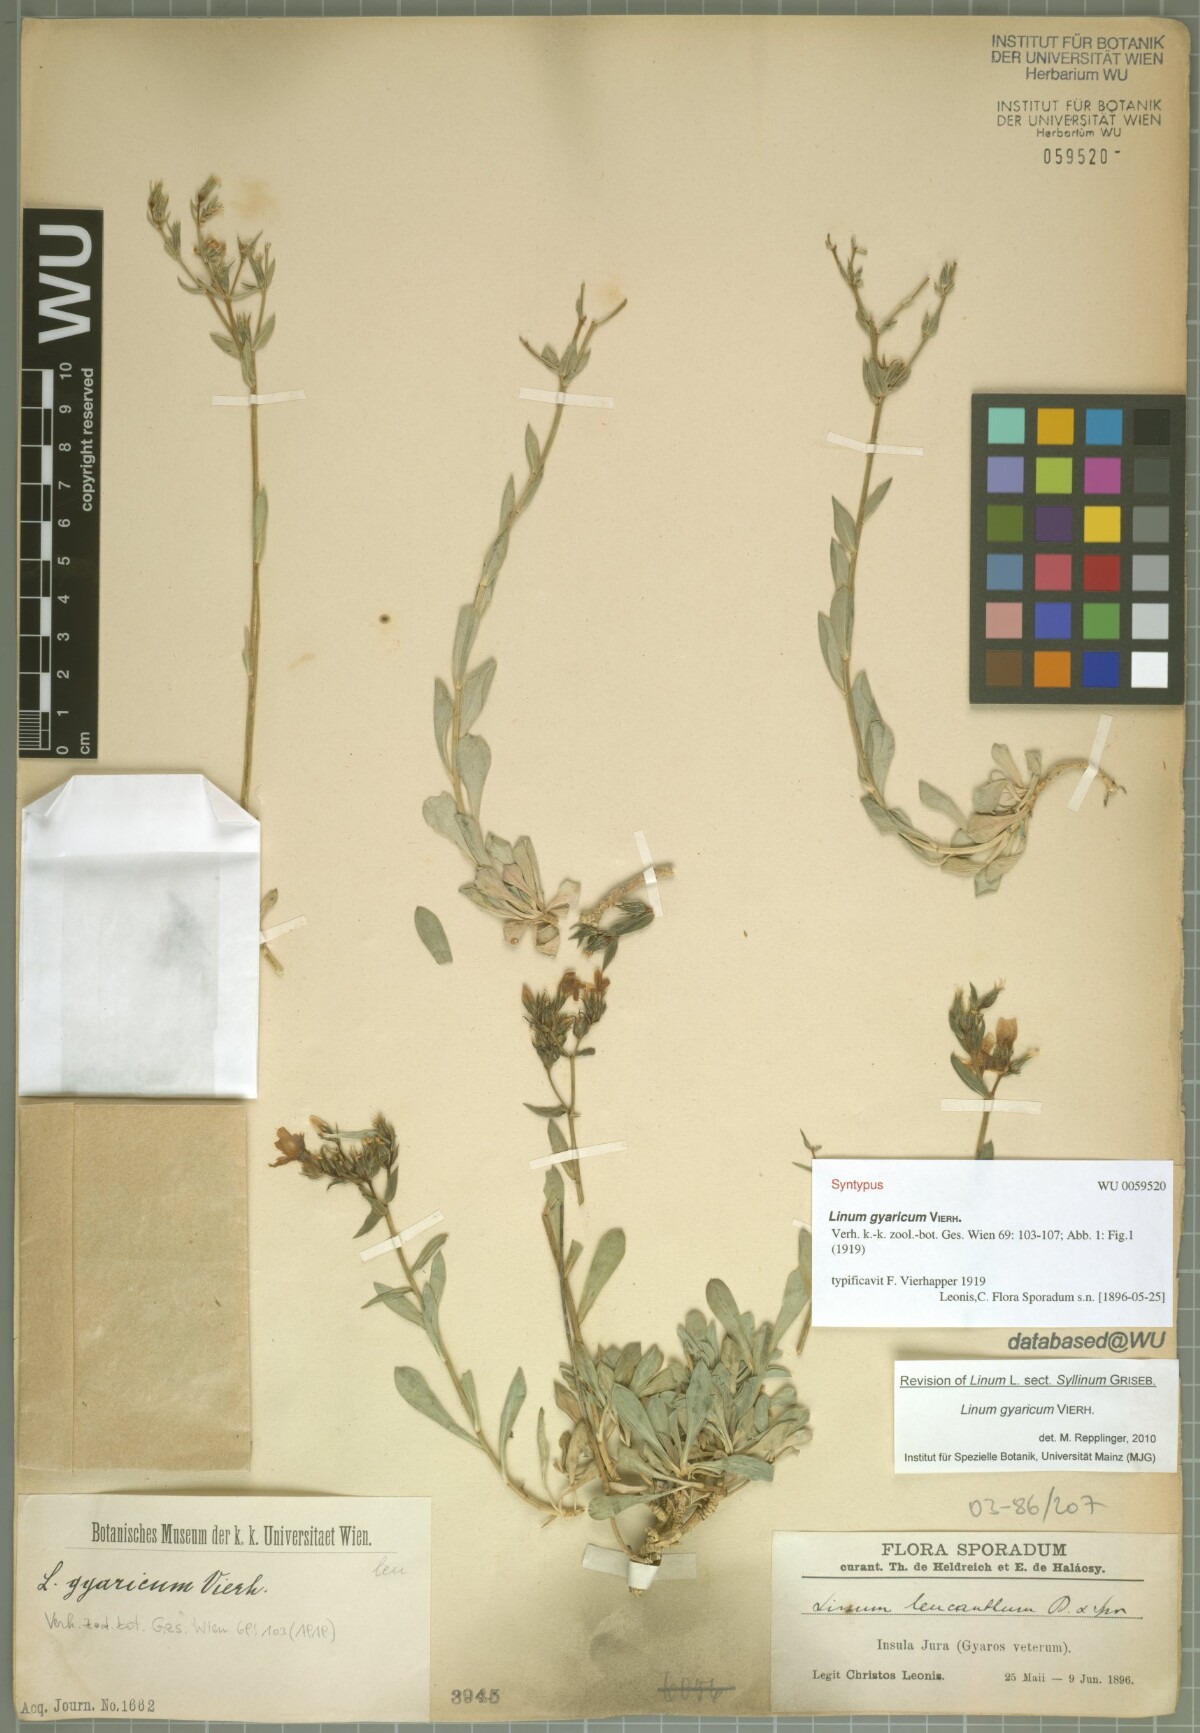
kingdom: Plantae
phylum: Tracheophyta
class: Magnoliopsida
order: Malpighiales
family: Linaceae
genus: Linum
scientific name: Linum gyaricum
